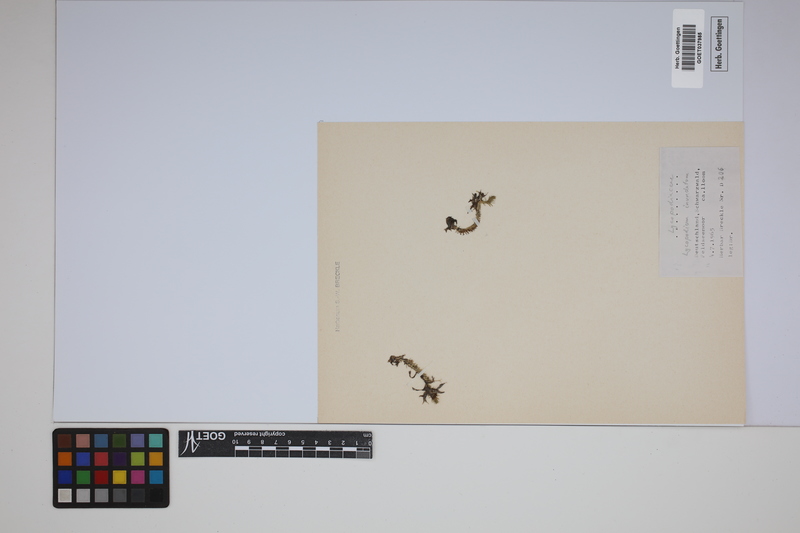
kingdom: Plantae
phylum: Tracheophyta
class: Lycopodiopsida
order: Lycopodiales
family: Lycopodiaceae
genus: Lycopodiella
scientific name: Lycopodiella inundata
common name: Marsh clubmoss
